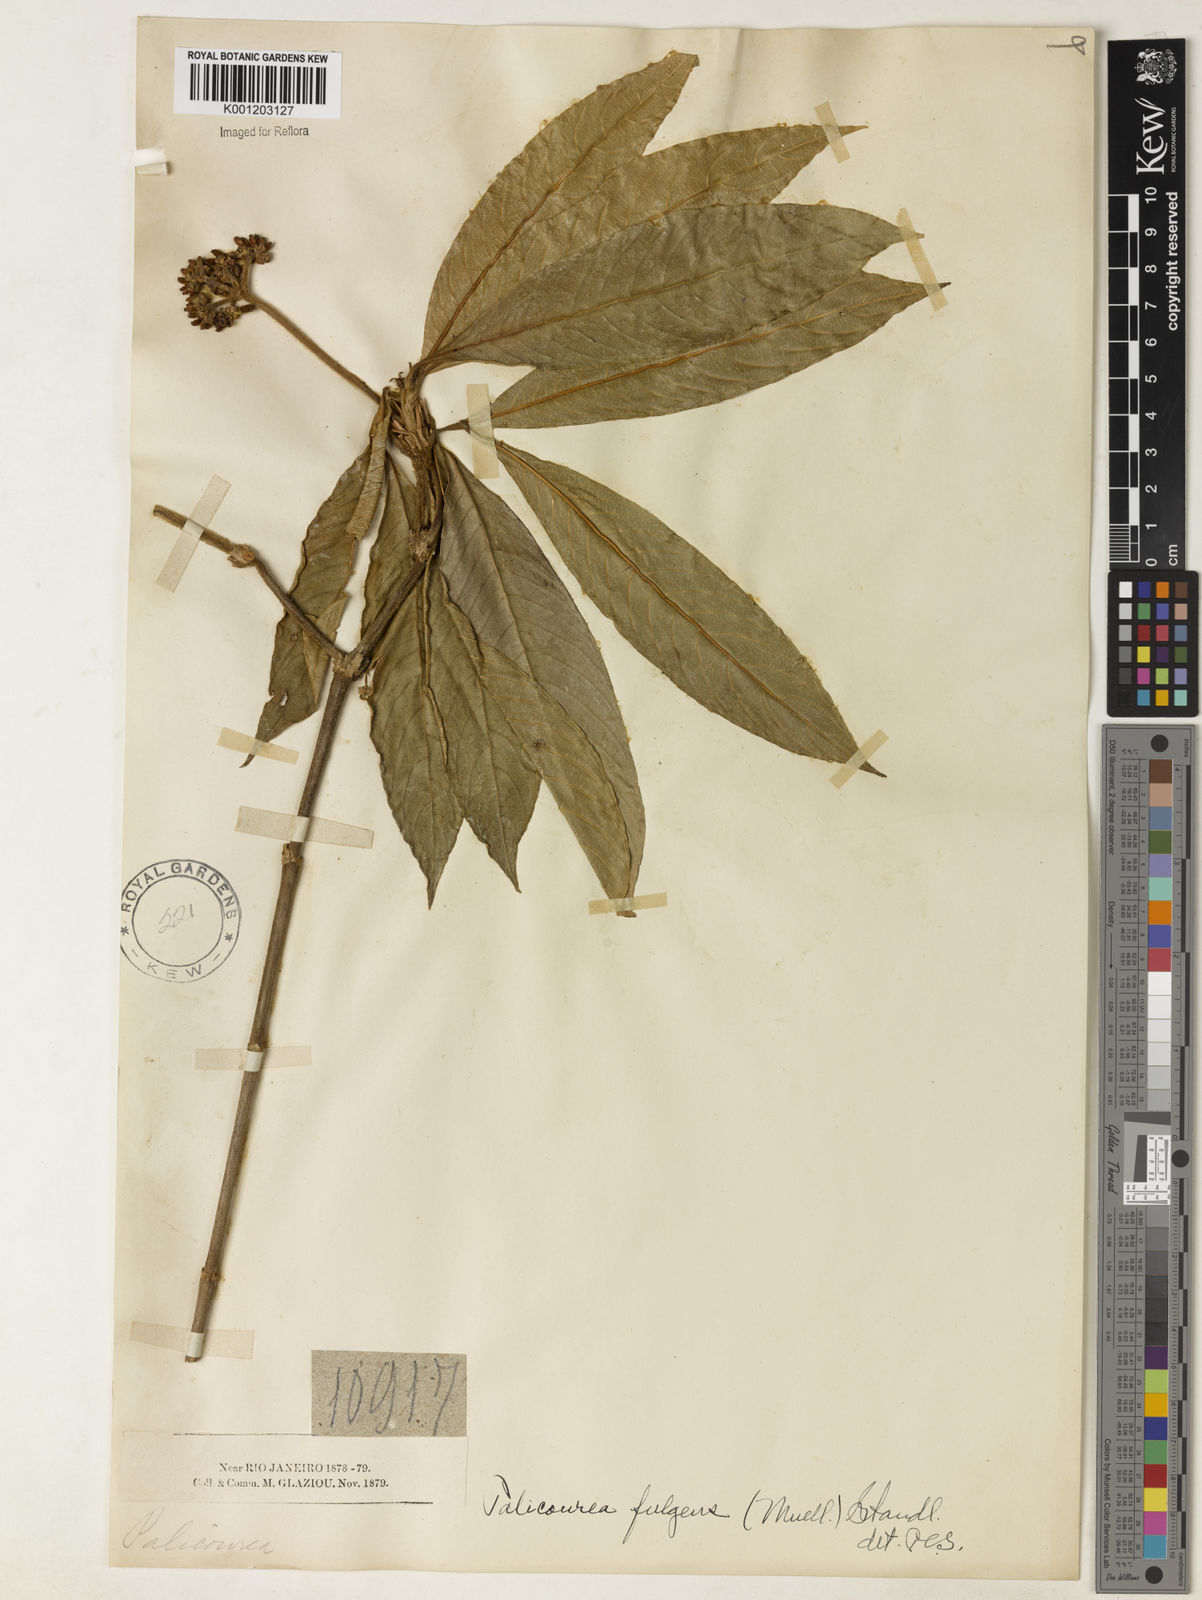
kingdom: Plantae
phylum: Tracheophyta
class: Magnoliopsida
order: Gentianales
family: Rubiaceae
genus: Palicourea
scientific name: Palicourea
